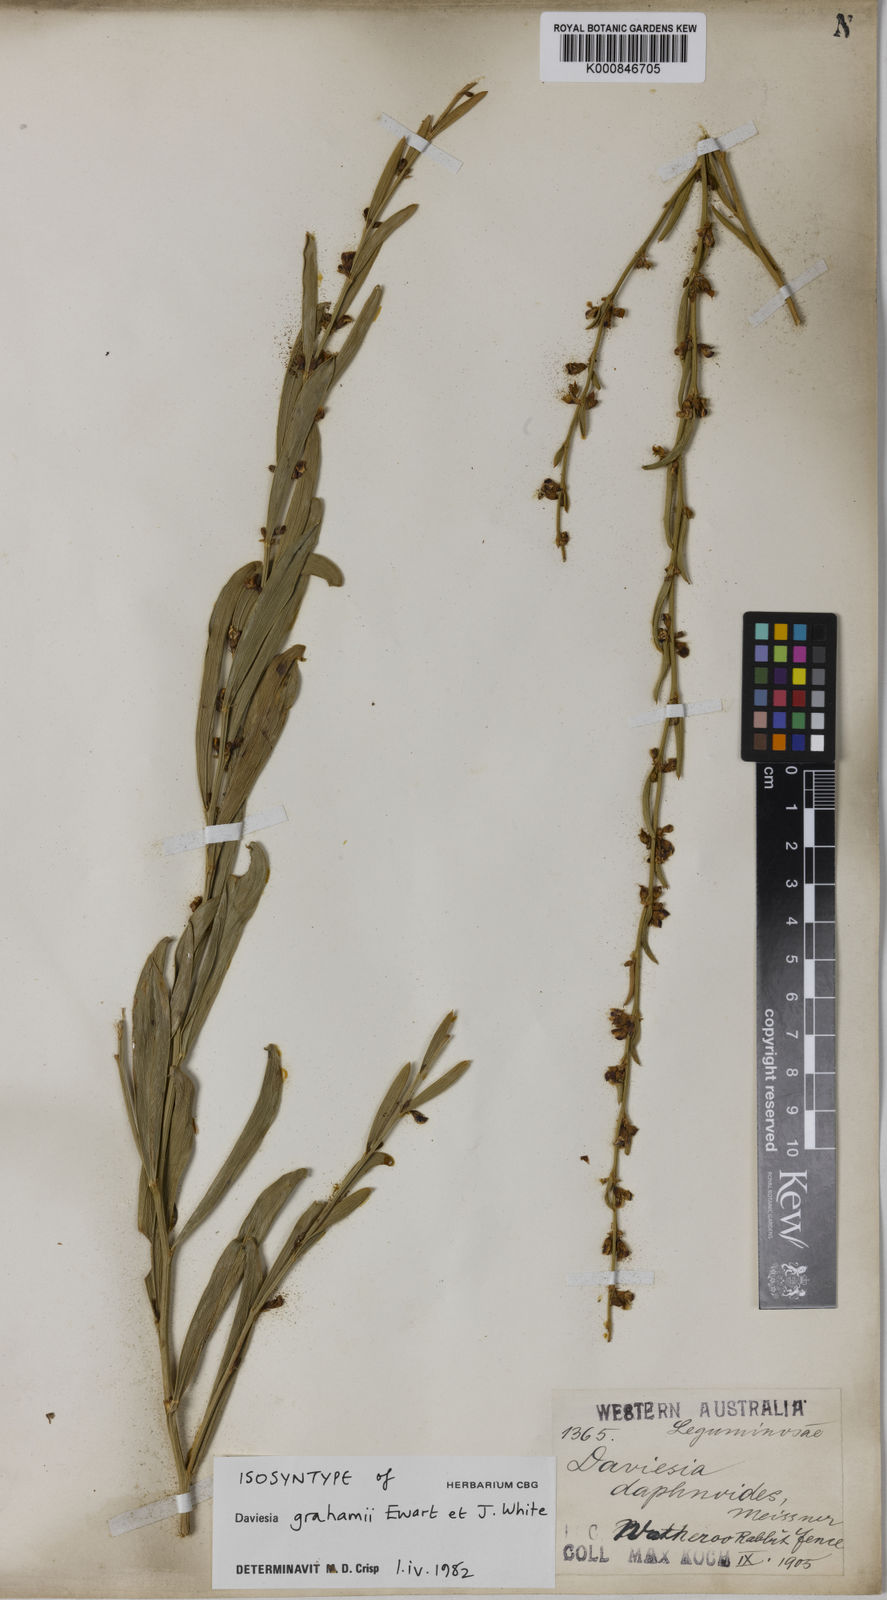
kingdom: Plantae
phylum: Tracheophyta
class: Magnoliopsida
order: Fabales
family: Fabaceae
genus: Daviesia
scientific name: Daviesia grahamii
